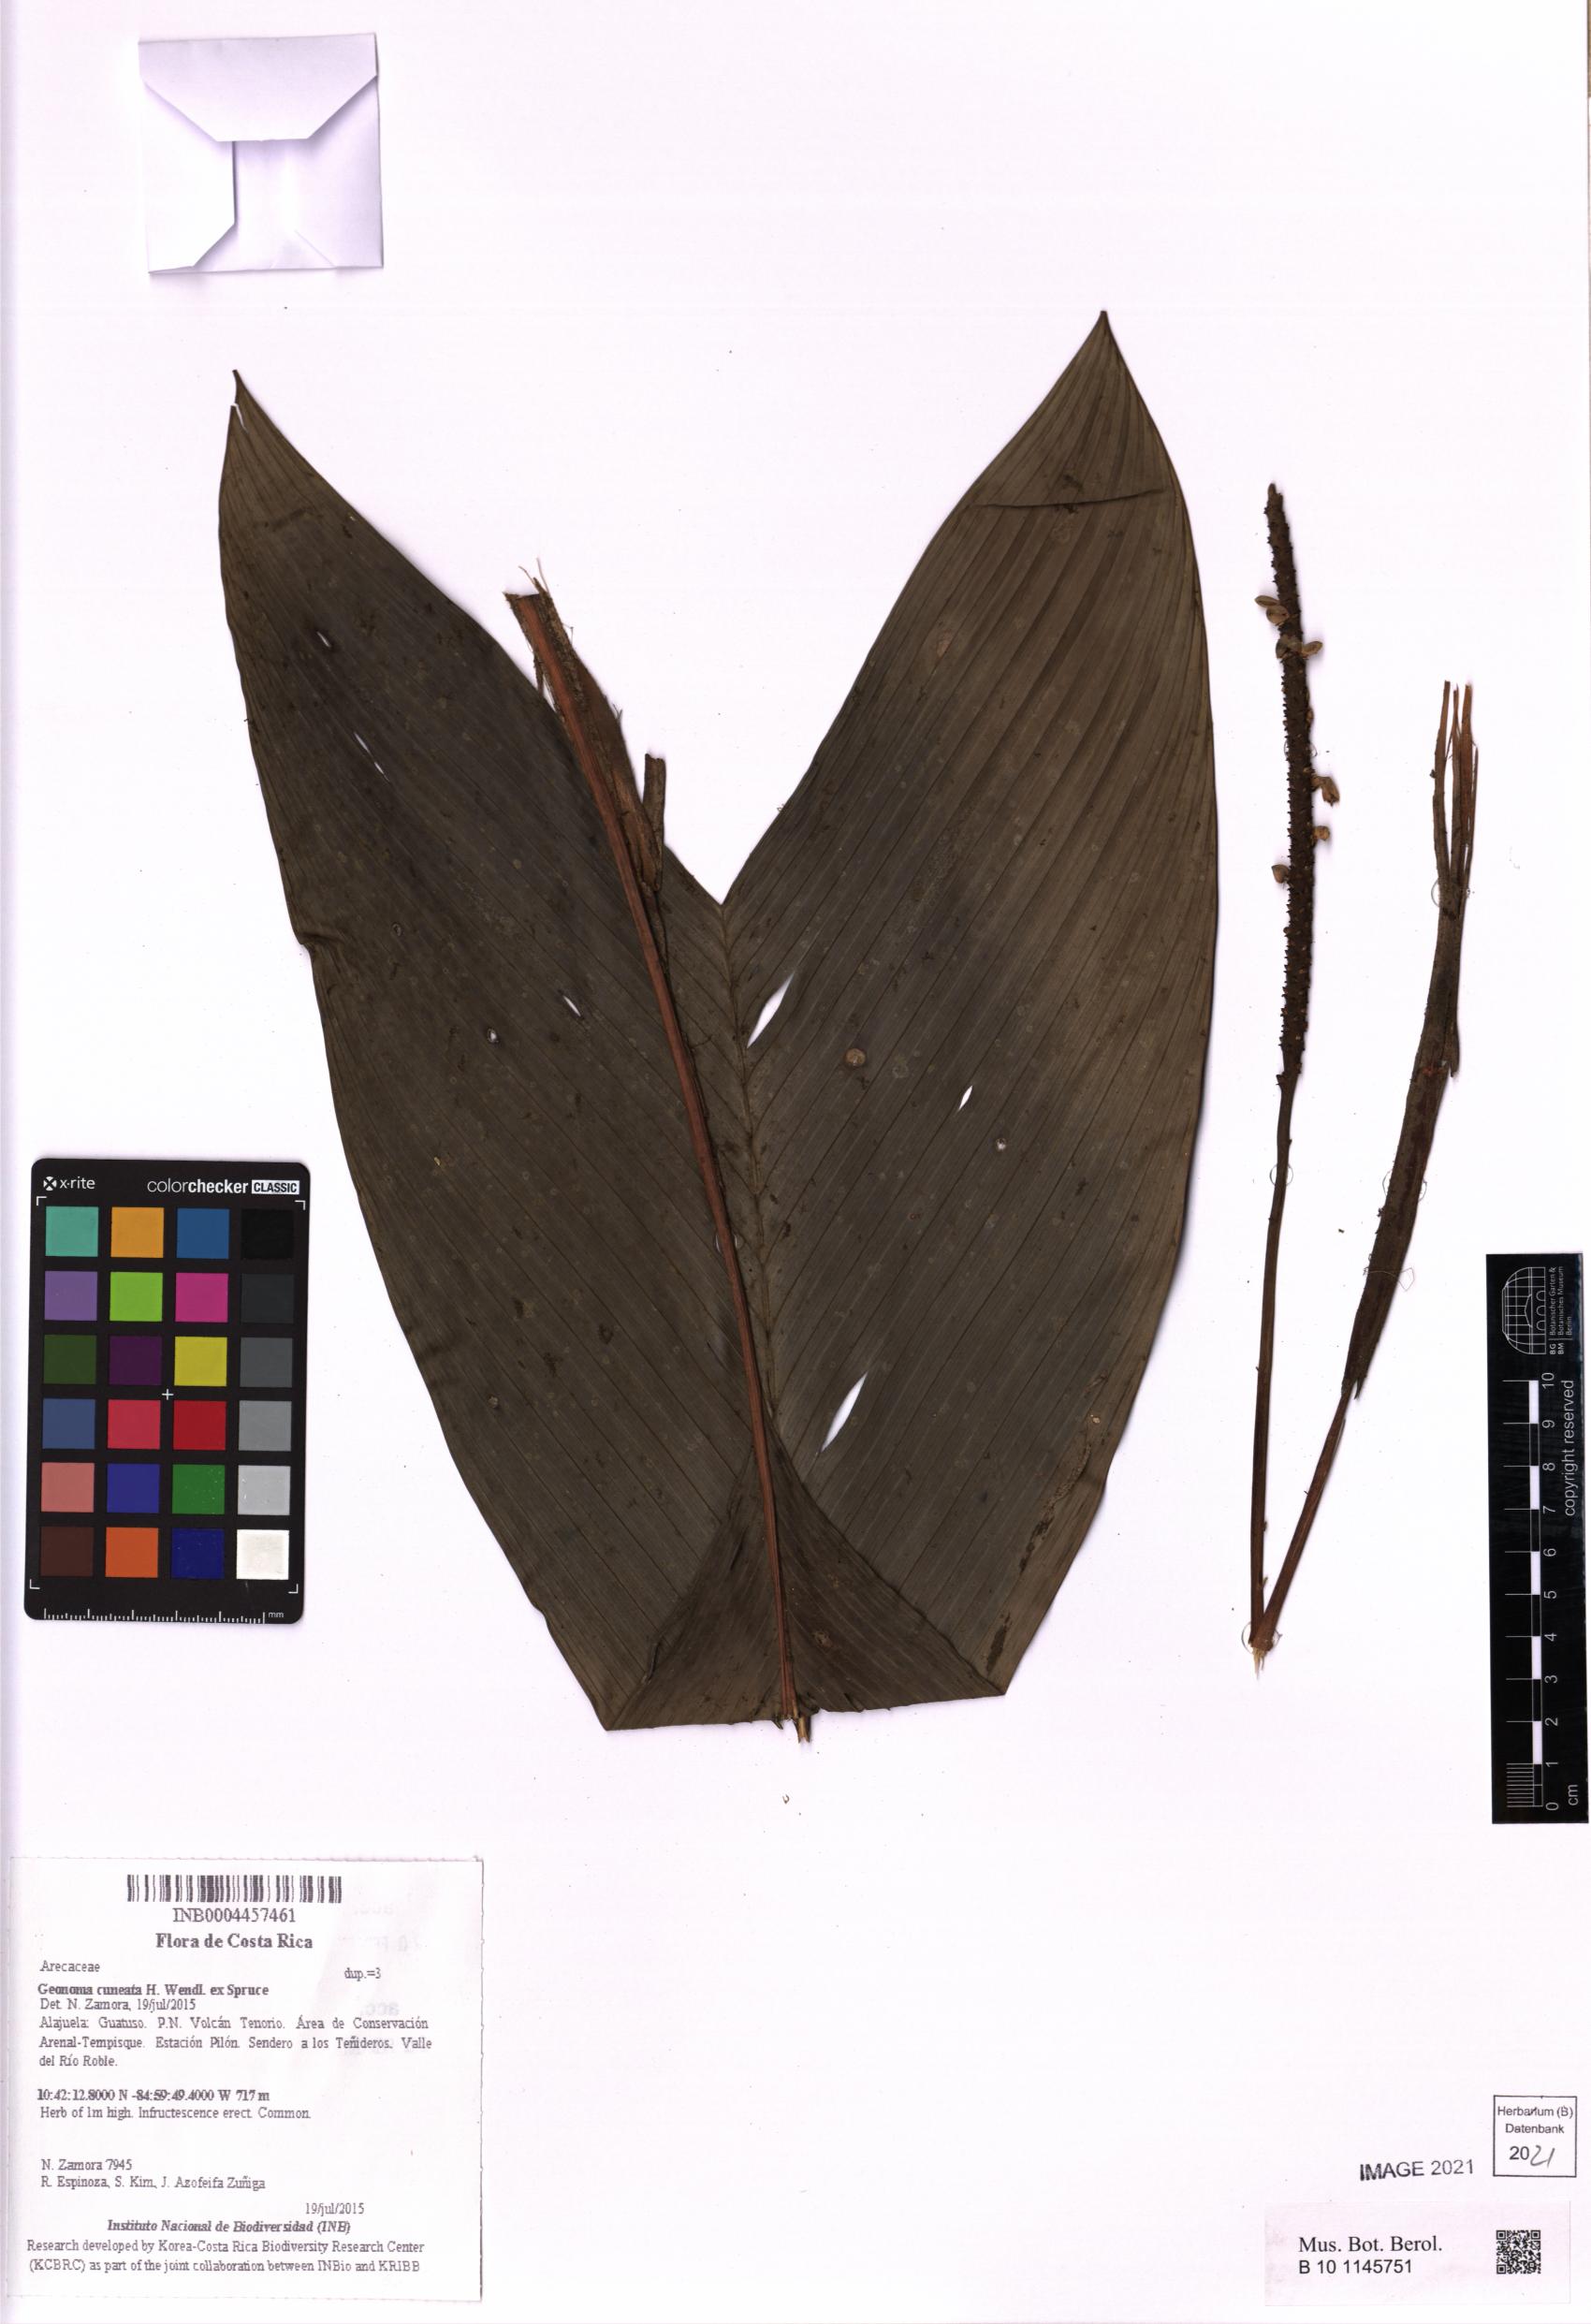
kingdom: Plantae
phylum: Tracheophyta
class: Liliopsida
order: Arecales
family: Arecaceae
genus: Geonoma
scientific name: Geonoma cuneata
